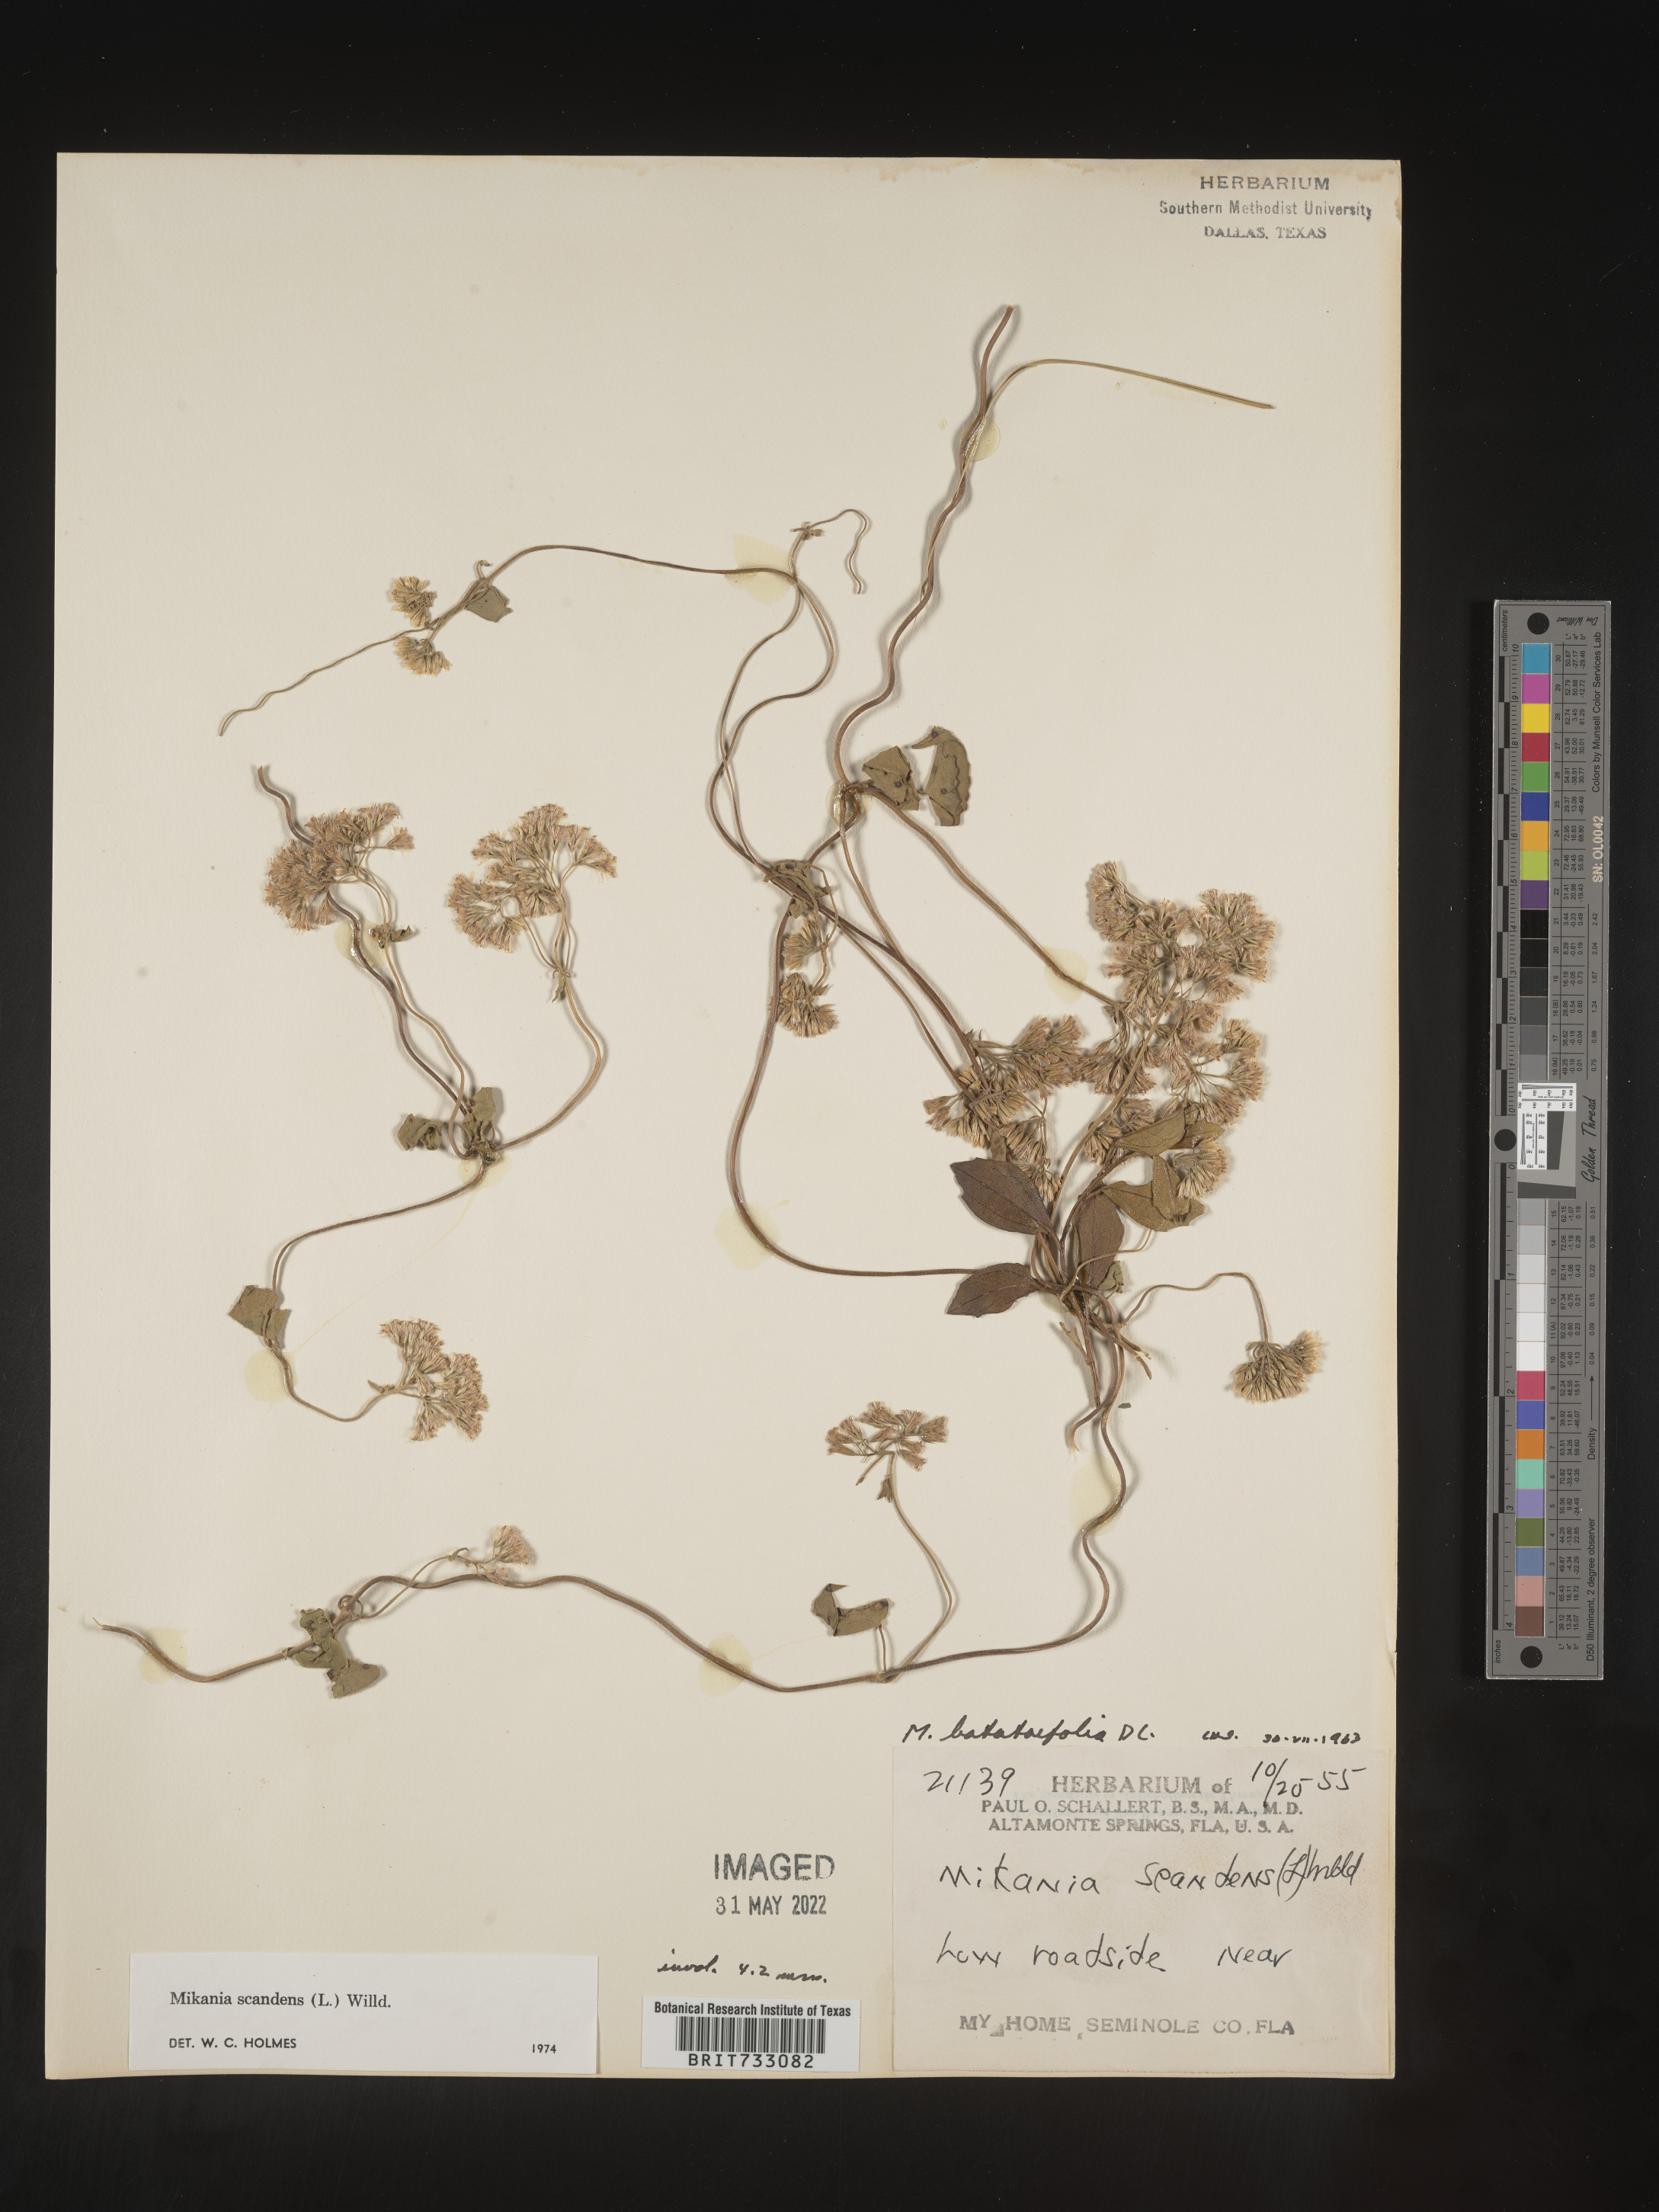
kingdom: Plantae
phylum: Tracheophyta
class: Magnoliopsida
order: Asterales
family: Asteraceae
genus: Mikania
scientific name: Mikania scandens
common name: Climbing hempvine
